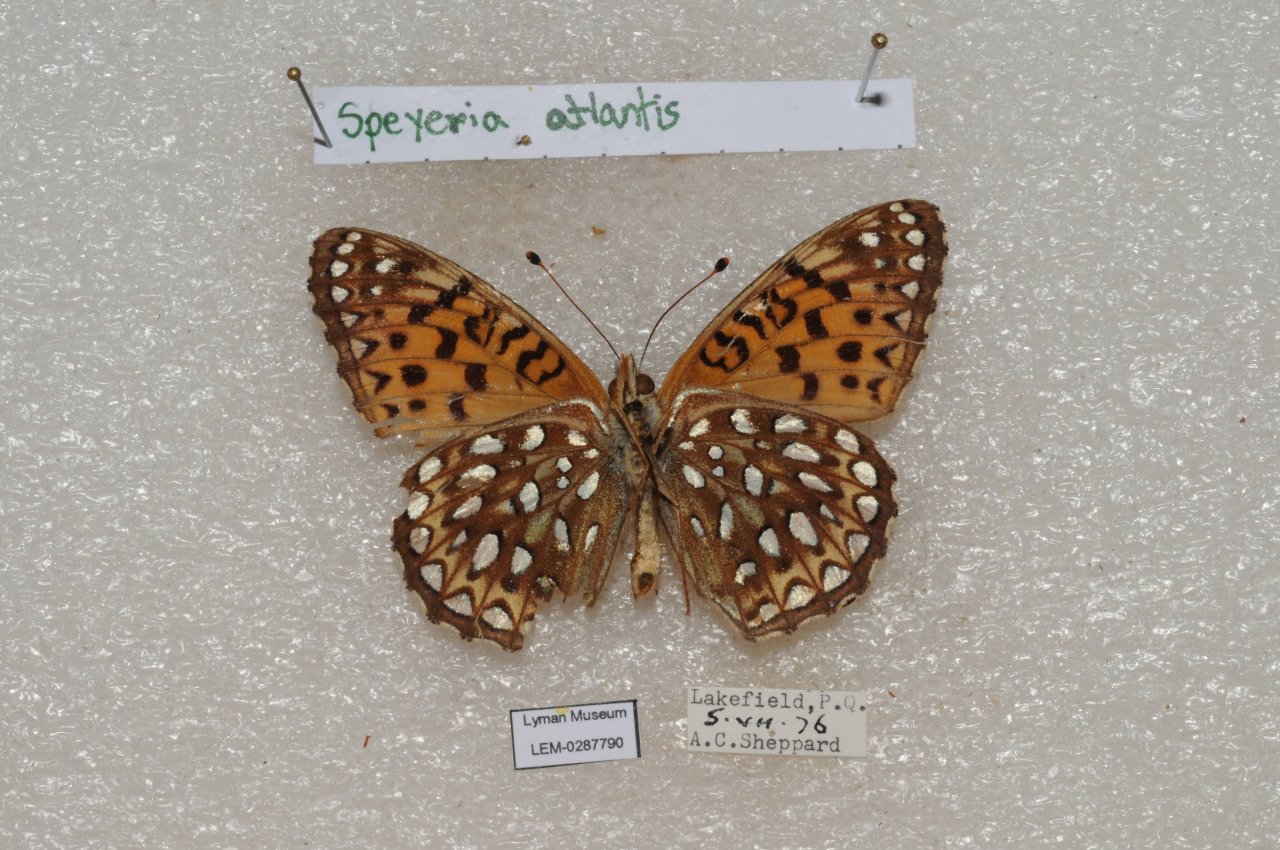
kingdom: Animalia
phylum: Arthropoda
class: Insecta
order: Lepidoptera
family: Nymphalidae
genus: Speyeria
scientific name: Speyeria atlantis
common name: Atlantis Fritillary
